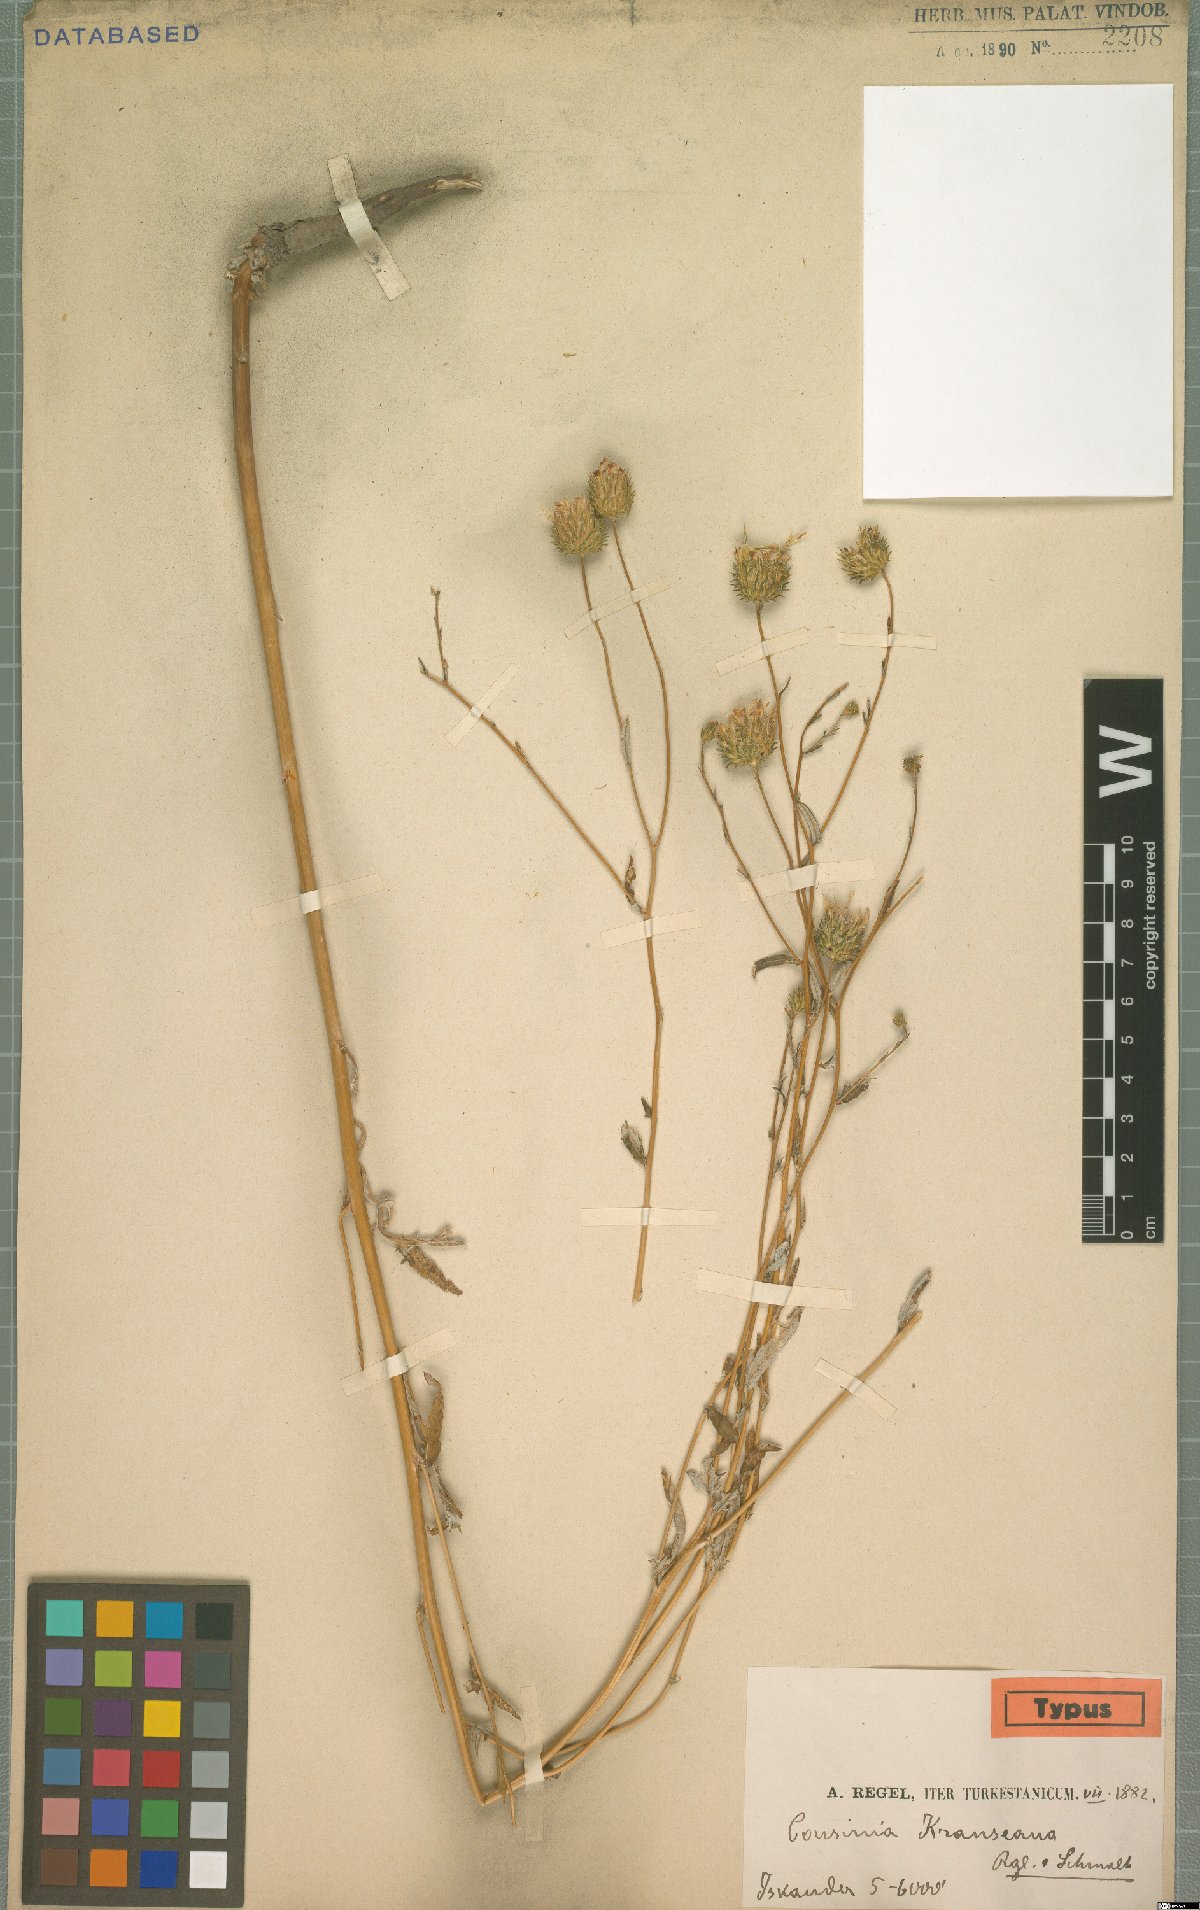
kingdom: Plantae
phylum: Tracheophyta
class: Magnoliopsida
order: Asterales
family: Asteraceae
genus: Cousinia
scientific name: Cousinia krauseana
